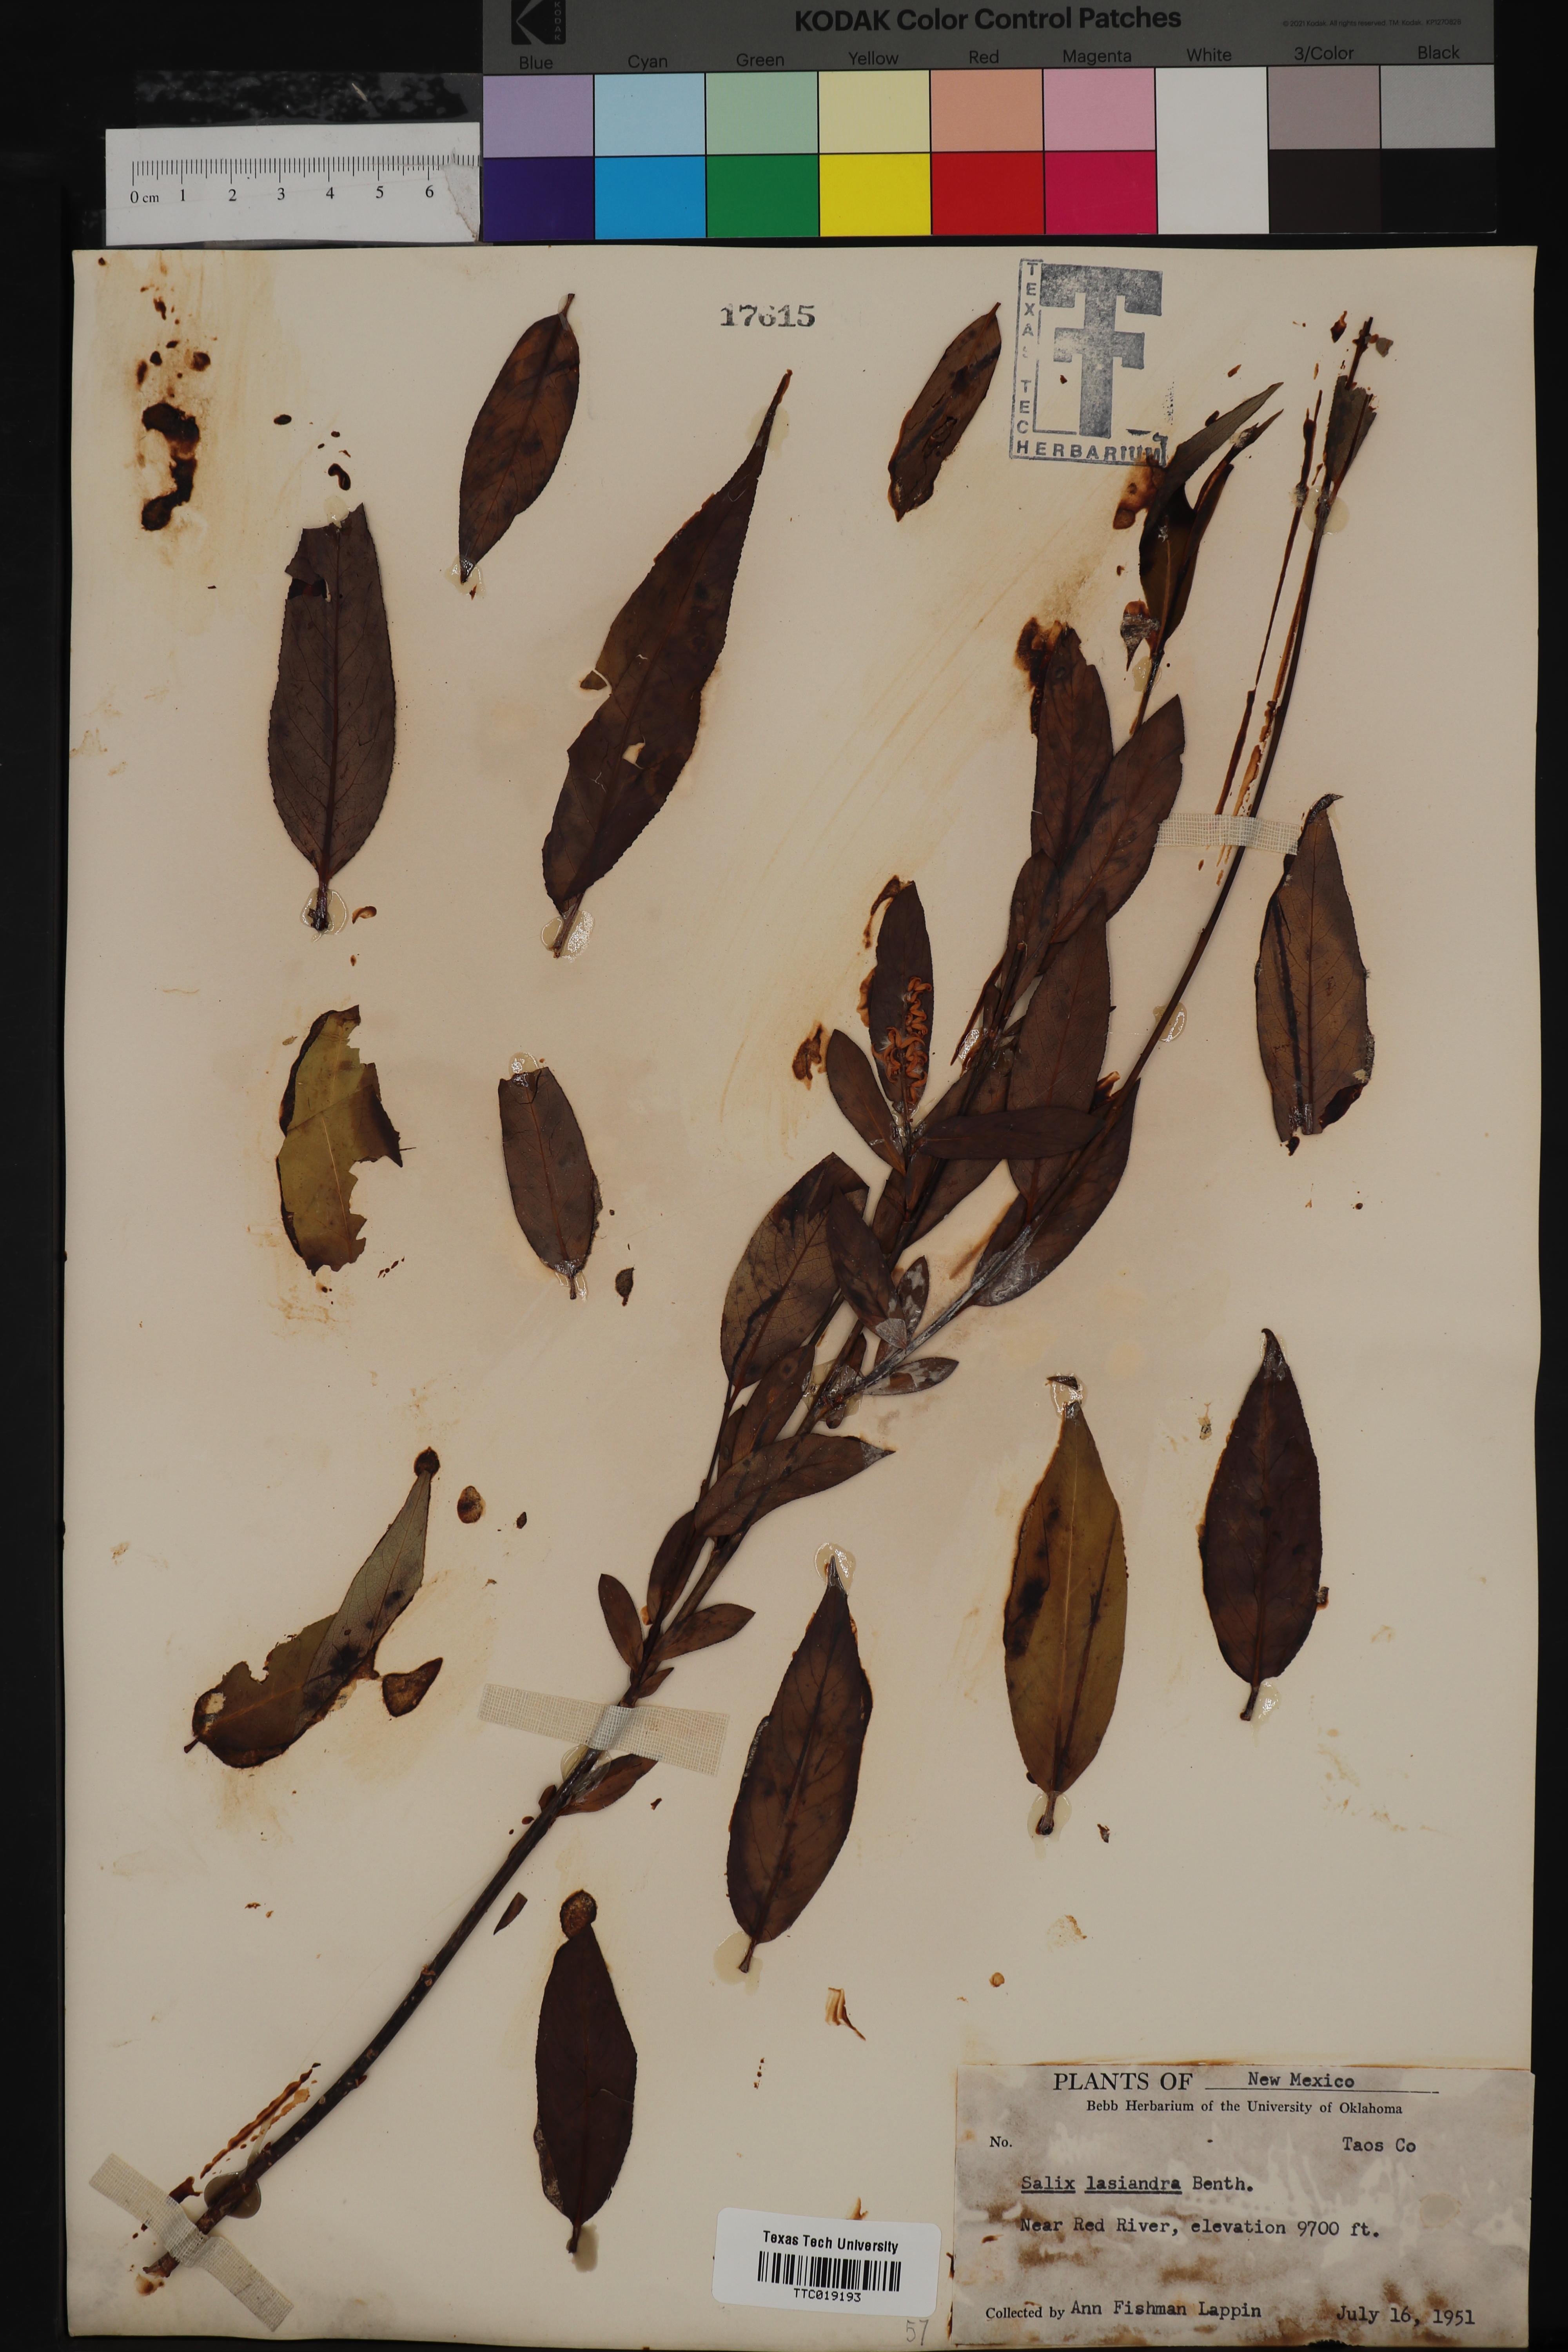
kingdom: Plantae
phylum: Tracheophyta
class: Magnoliopsida
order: Malpighiales
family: Salicaceae
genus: Salix
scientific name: Salix lucida
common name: Shining willow
